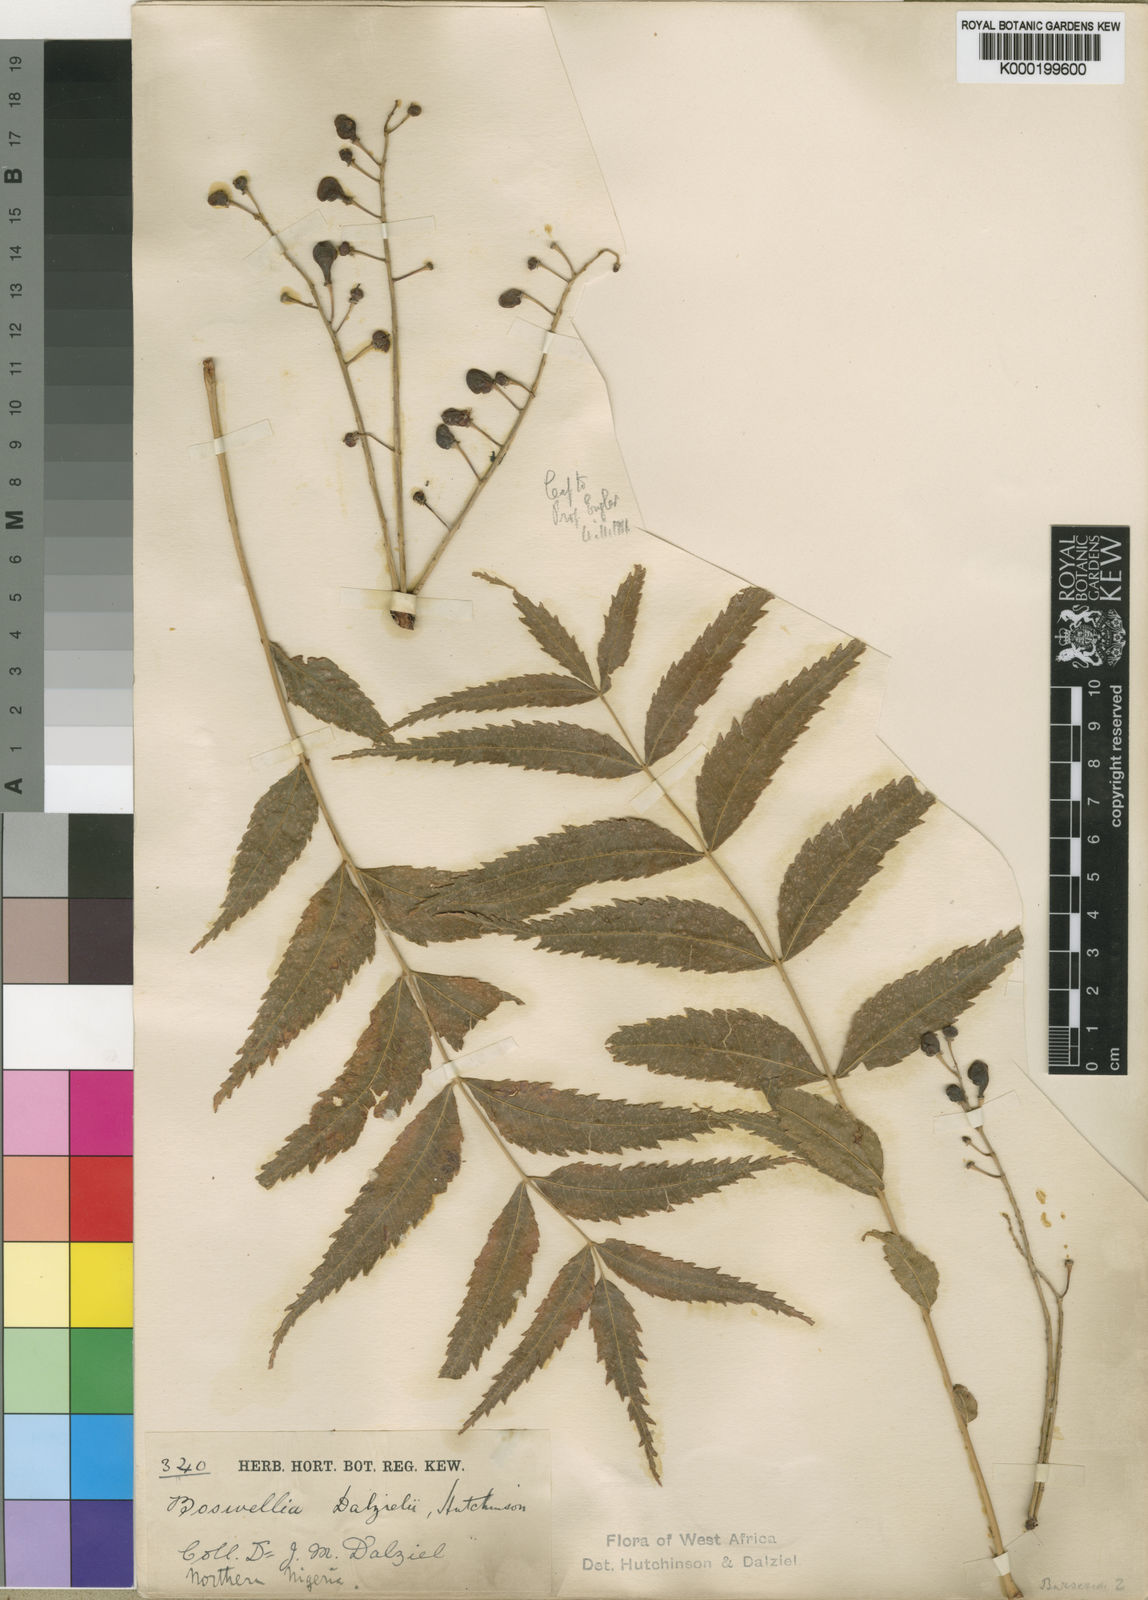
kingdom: Plantae
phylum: Tracheophyta
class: Magnoliopsida
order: Sapindales
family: Burseraceae
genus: Boswellia
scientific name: Boswellia dalzielii
